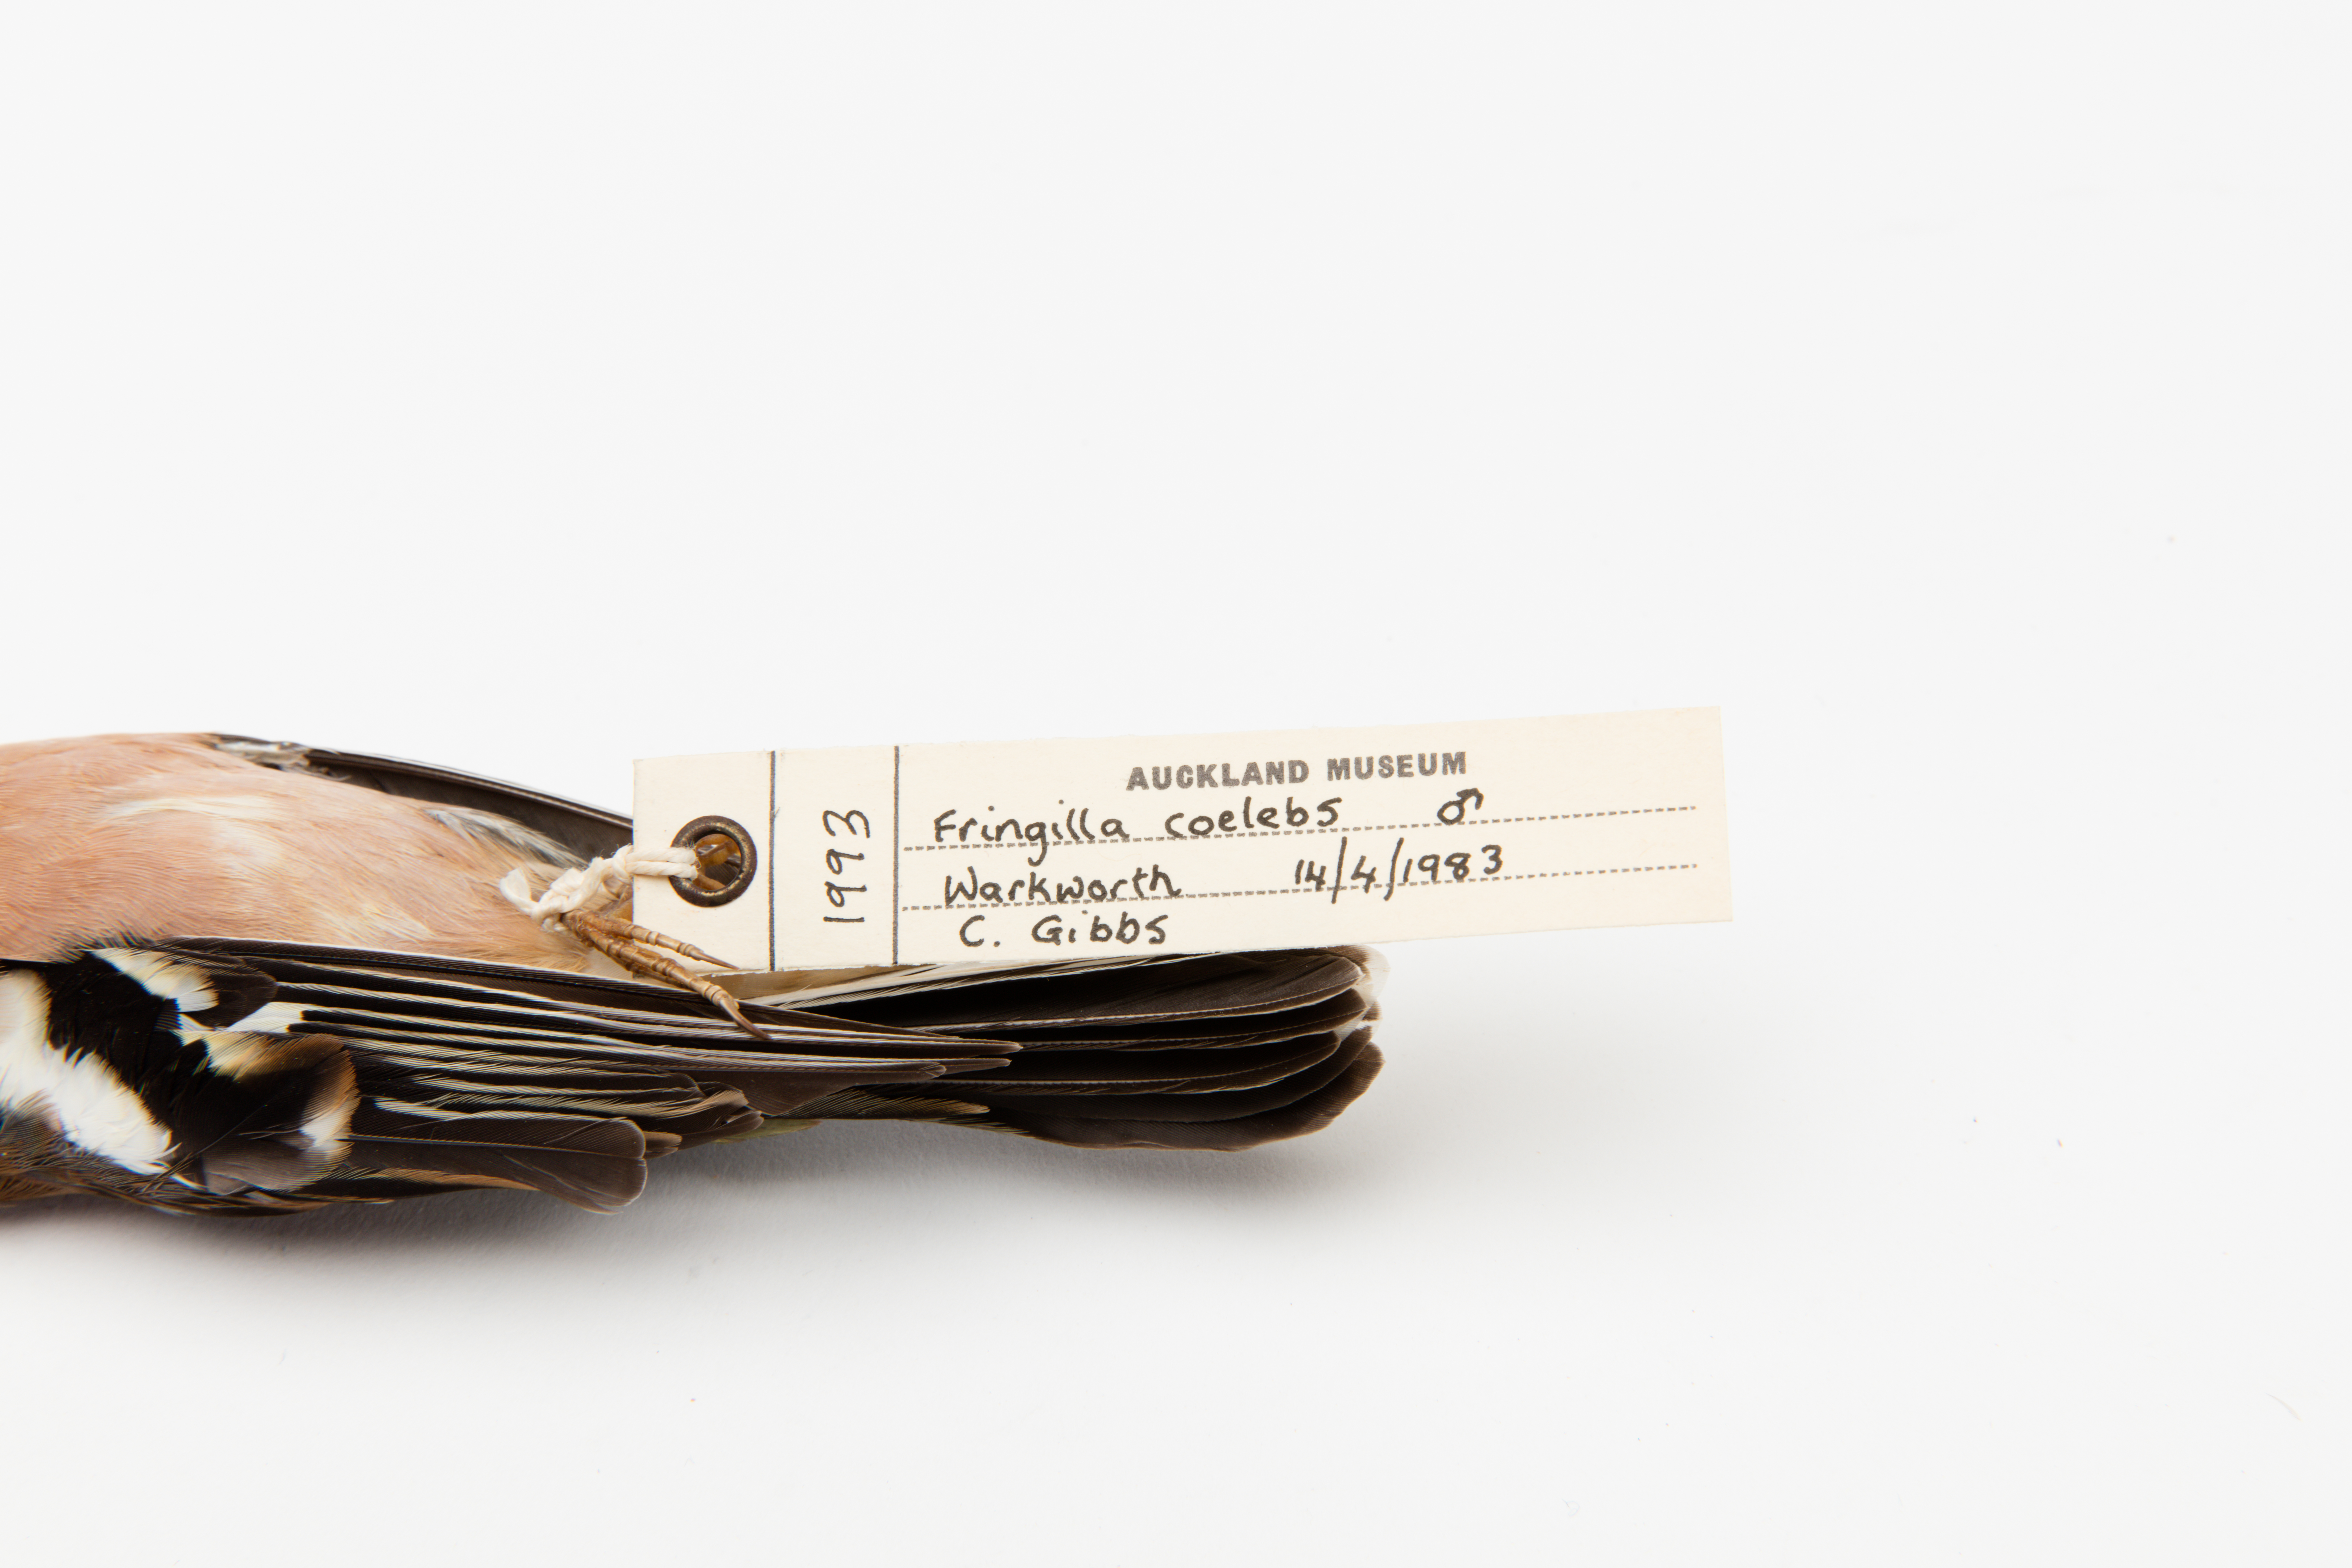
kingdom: Animalia
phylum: Chordata
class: Aves
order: Passeriformes
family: Fringillidae
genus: Fringilla
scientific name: Fringilla coelebs
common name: Common chaffinch
